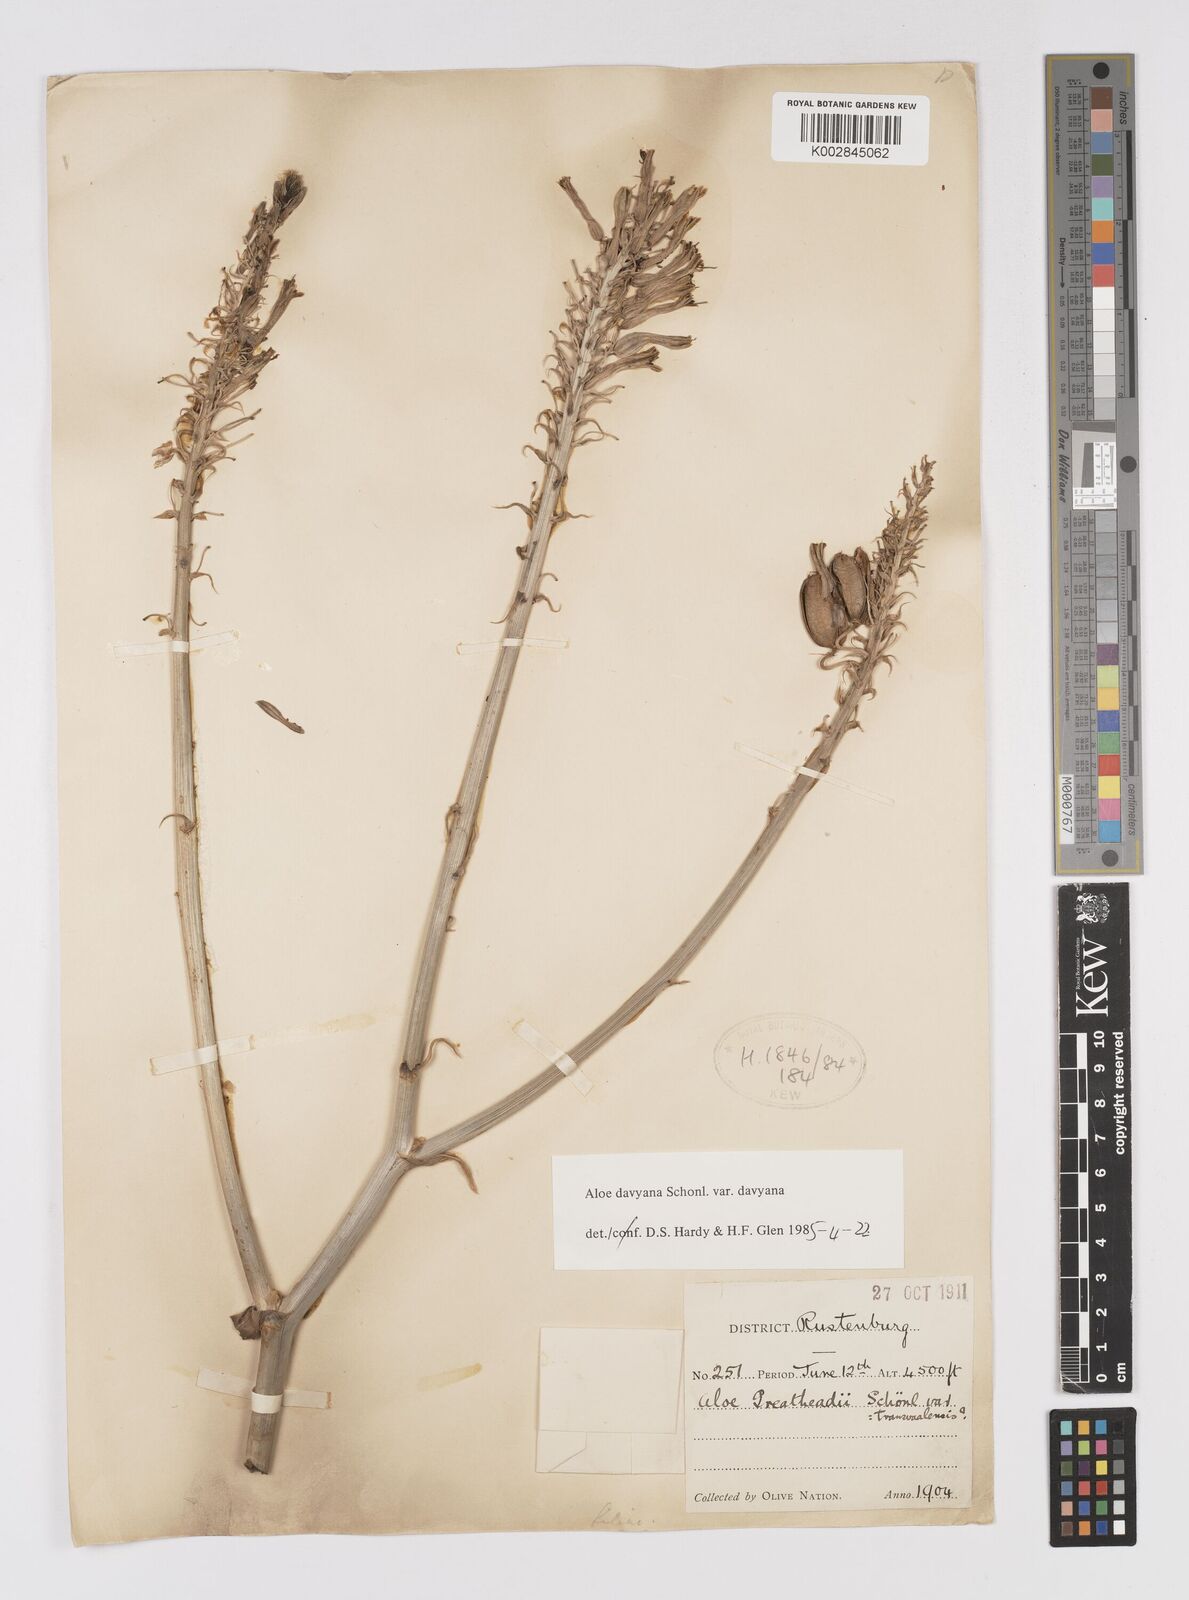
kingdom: Plantae
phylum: Tracheophyta
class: Liliopsida
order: Asparagales
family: Asphodelaceae
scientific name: Asphodelaceae
